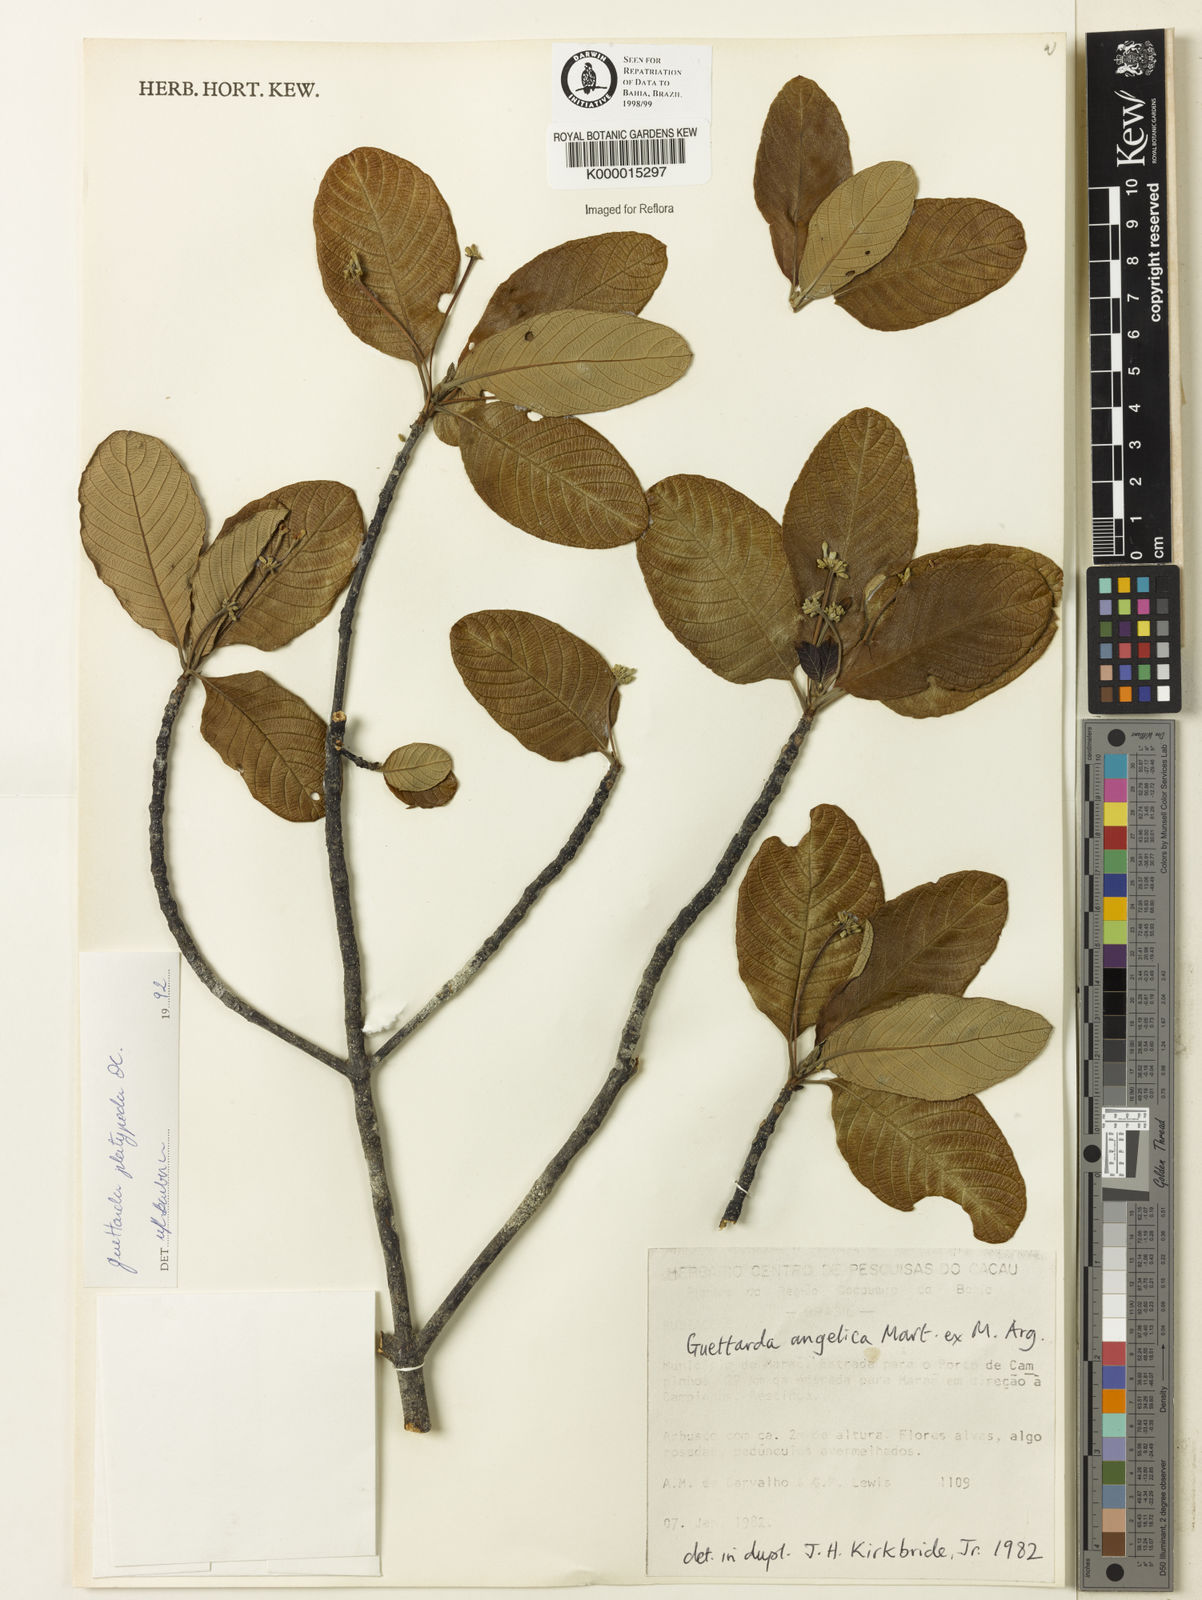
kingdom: Plantae
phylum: Tracheophyta
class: Magnoliopsida
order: Gentianales
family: Rubiaceae
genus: Guettarda
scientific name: Guettarda platypoda
